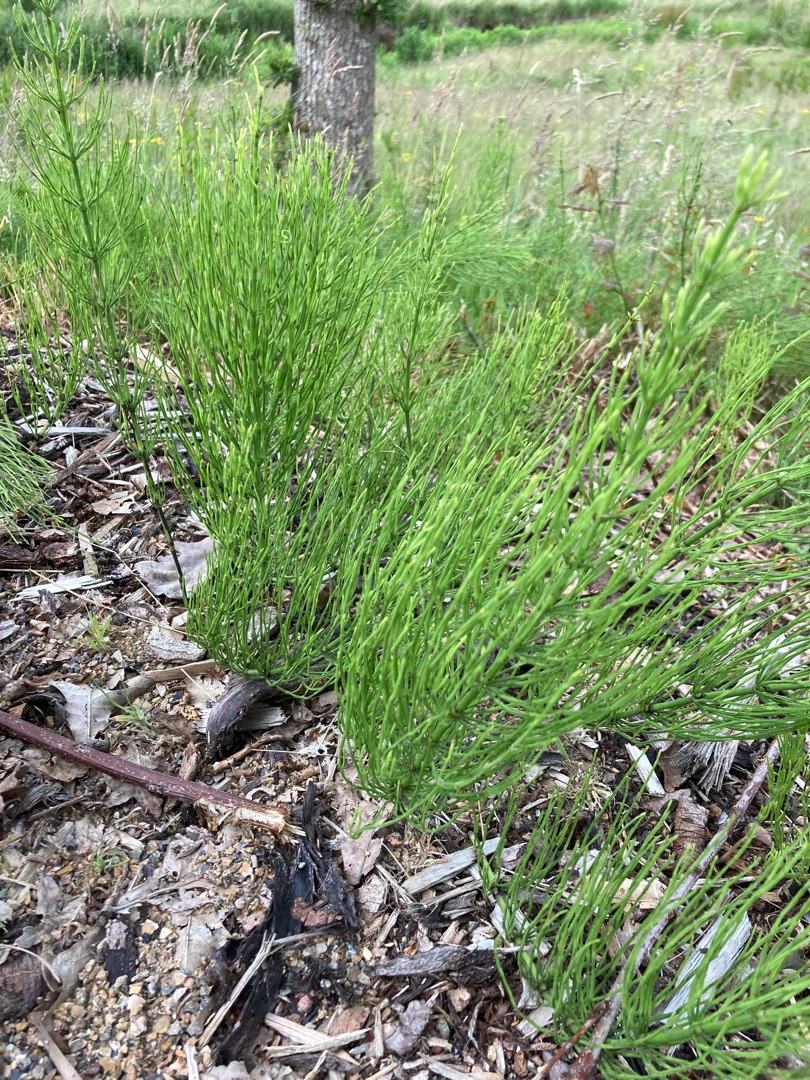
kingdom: Plantae
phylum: Tracheophyta
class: Polypodiopsida
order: Equisetales
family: Equisetaceae
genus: Equisetum
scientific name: Equisetum arvense
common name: Ager-padderok
